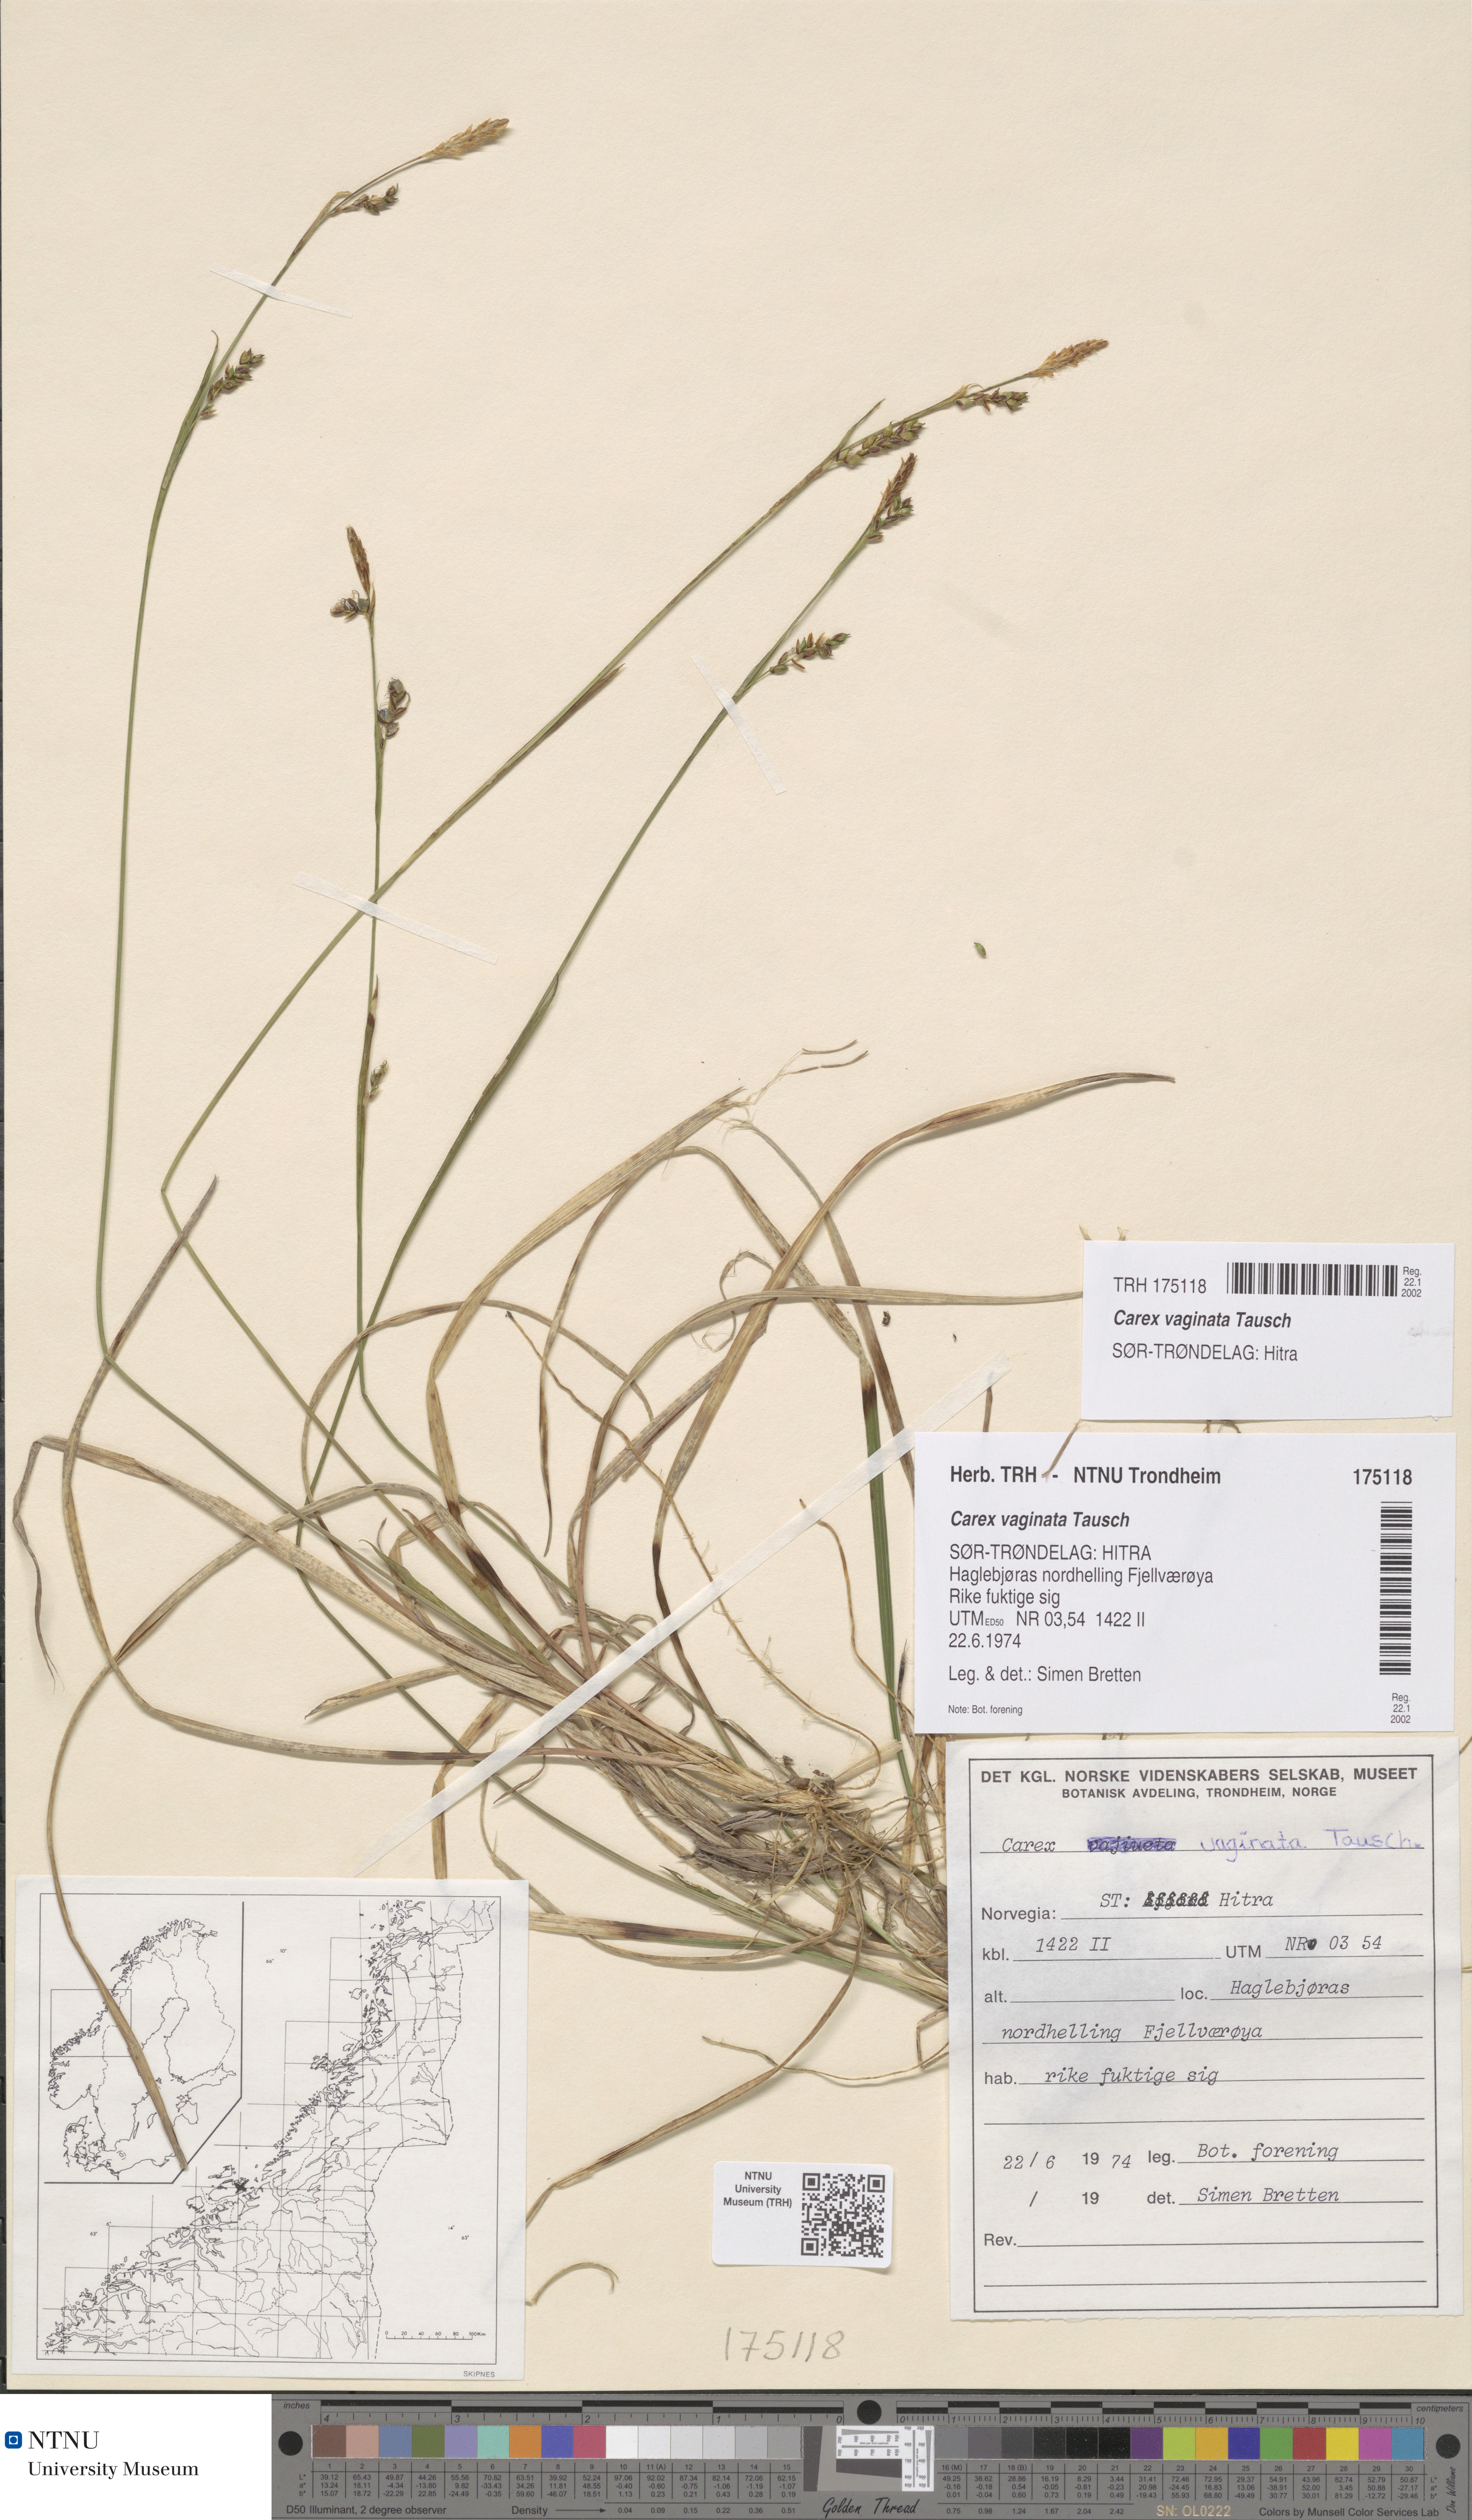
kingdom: Plantae
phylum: Tracheophyta
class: Liliopsida
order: Poales
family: Cyperaceae
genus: Carex
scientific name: Carex vaginata
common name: Sheathed sedge
